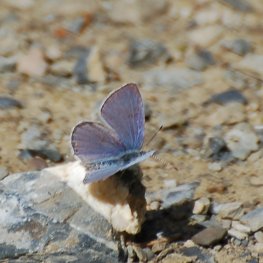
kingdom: Animalia
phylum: Arthropoda
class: Insecta
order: Lepidoptera
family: Lycaenidae
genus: Elkalyce
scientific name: Elkalyce amyntula
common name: Western Tailed-Blue
